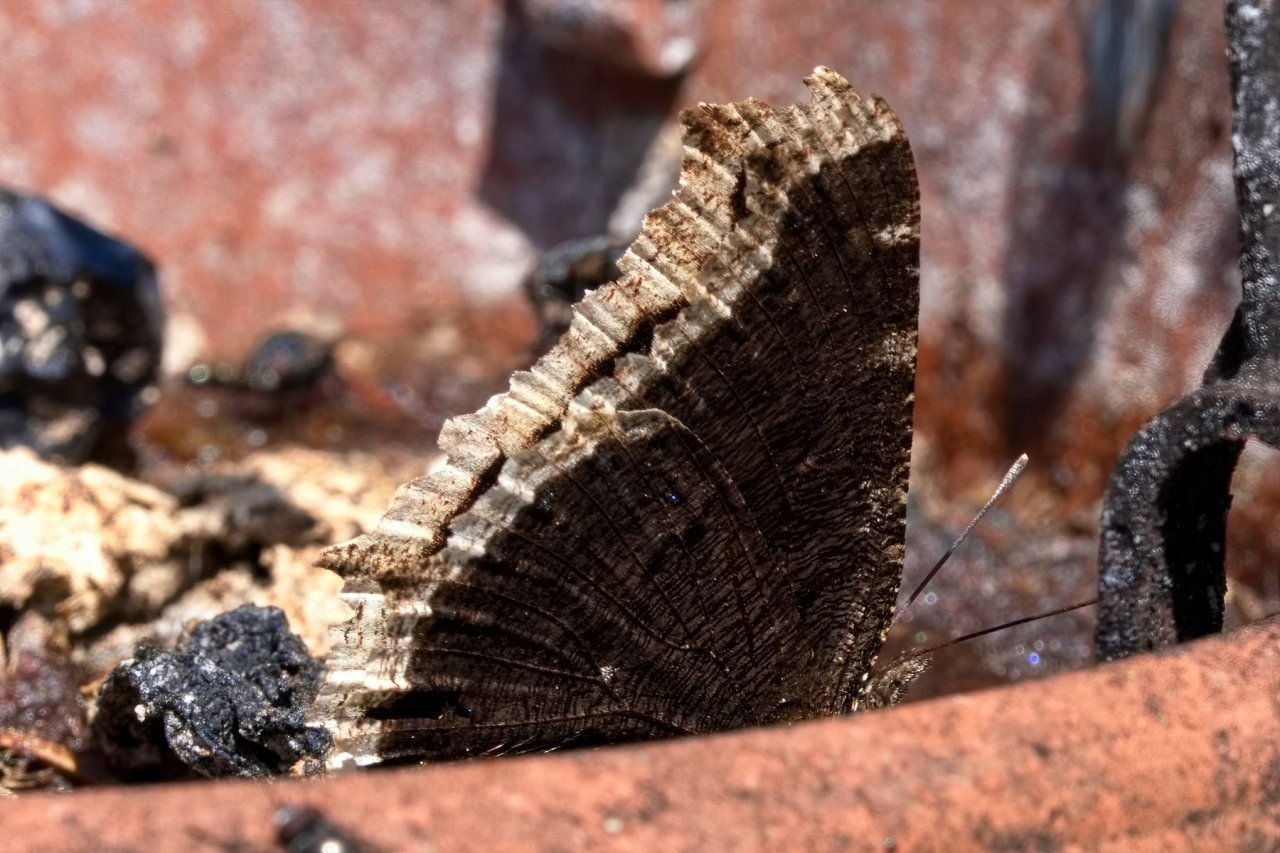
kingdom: Animalia
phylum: Arthropoda
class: Insecta
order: Lepidoptera
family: Nymphalidae
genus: Nymphalis
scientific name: Nymphalis antiopa
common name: Mourning Cloak
